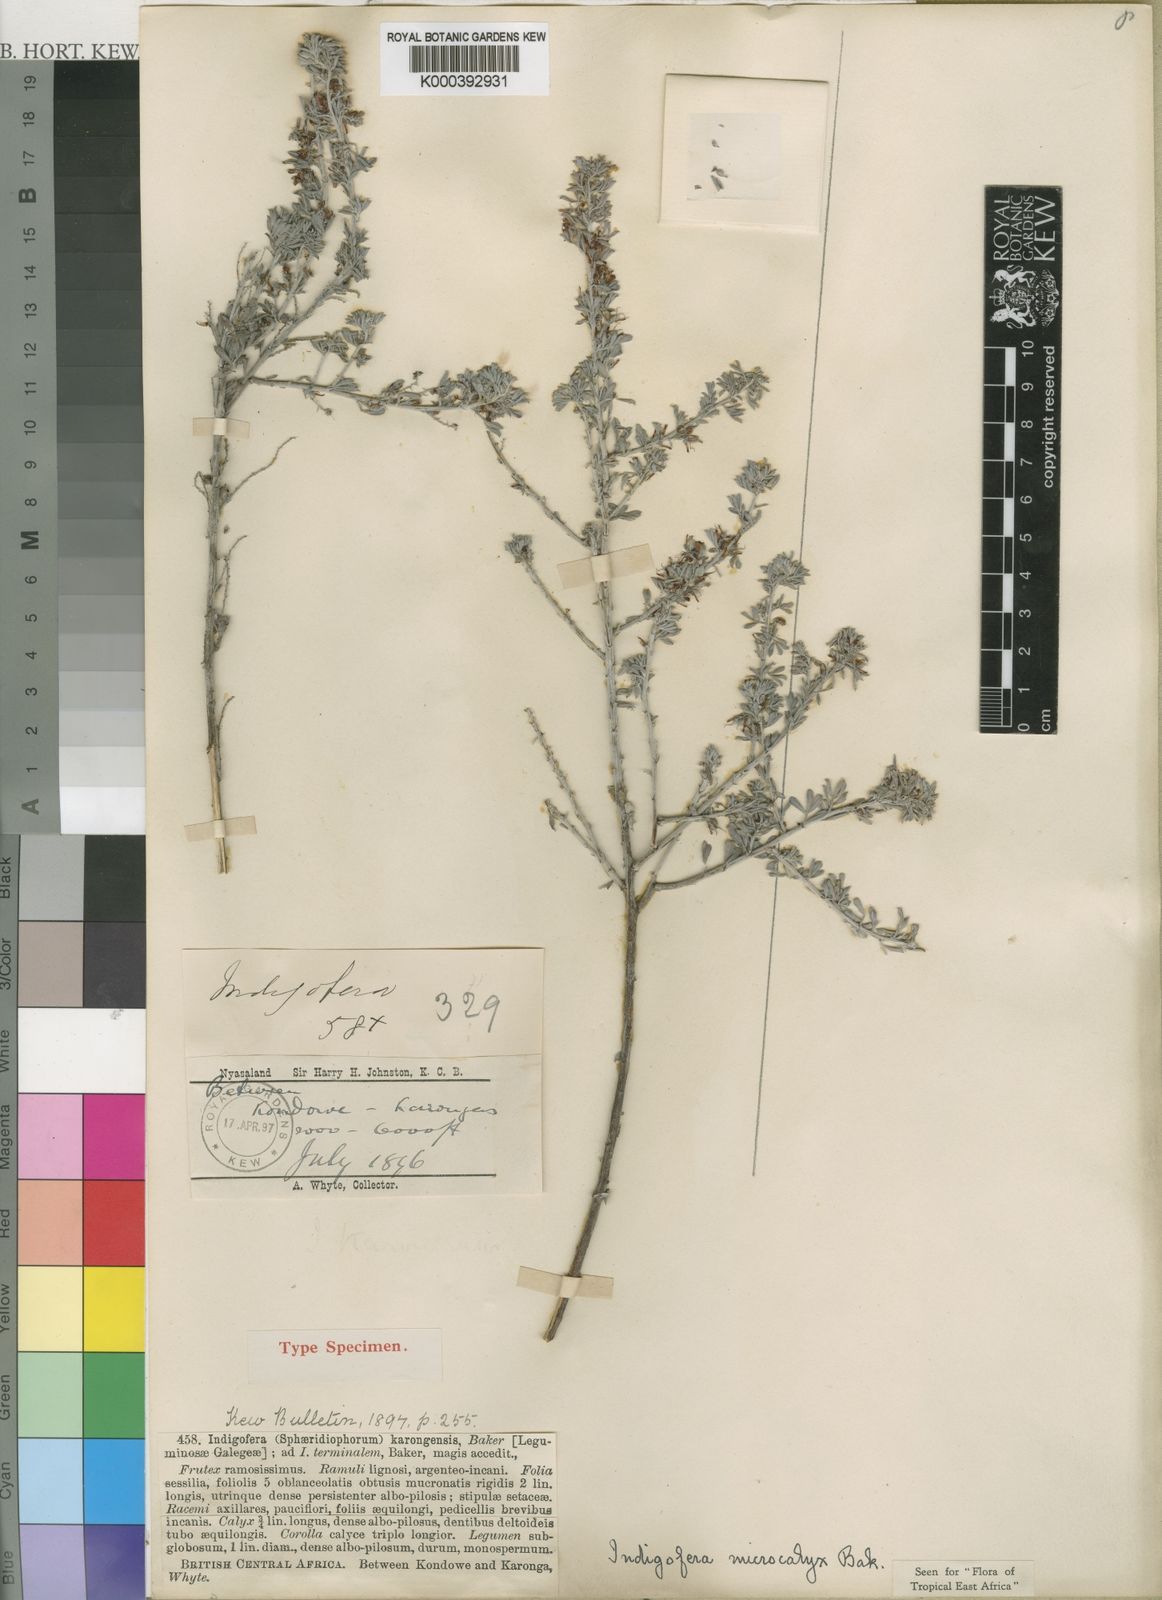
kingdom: Plantae
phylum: Tracheophyta
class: Magnoliopsida
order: Fabales
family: Fabaceae
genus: Indigofera
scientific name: Indigofera microcalyx
